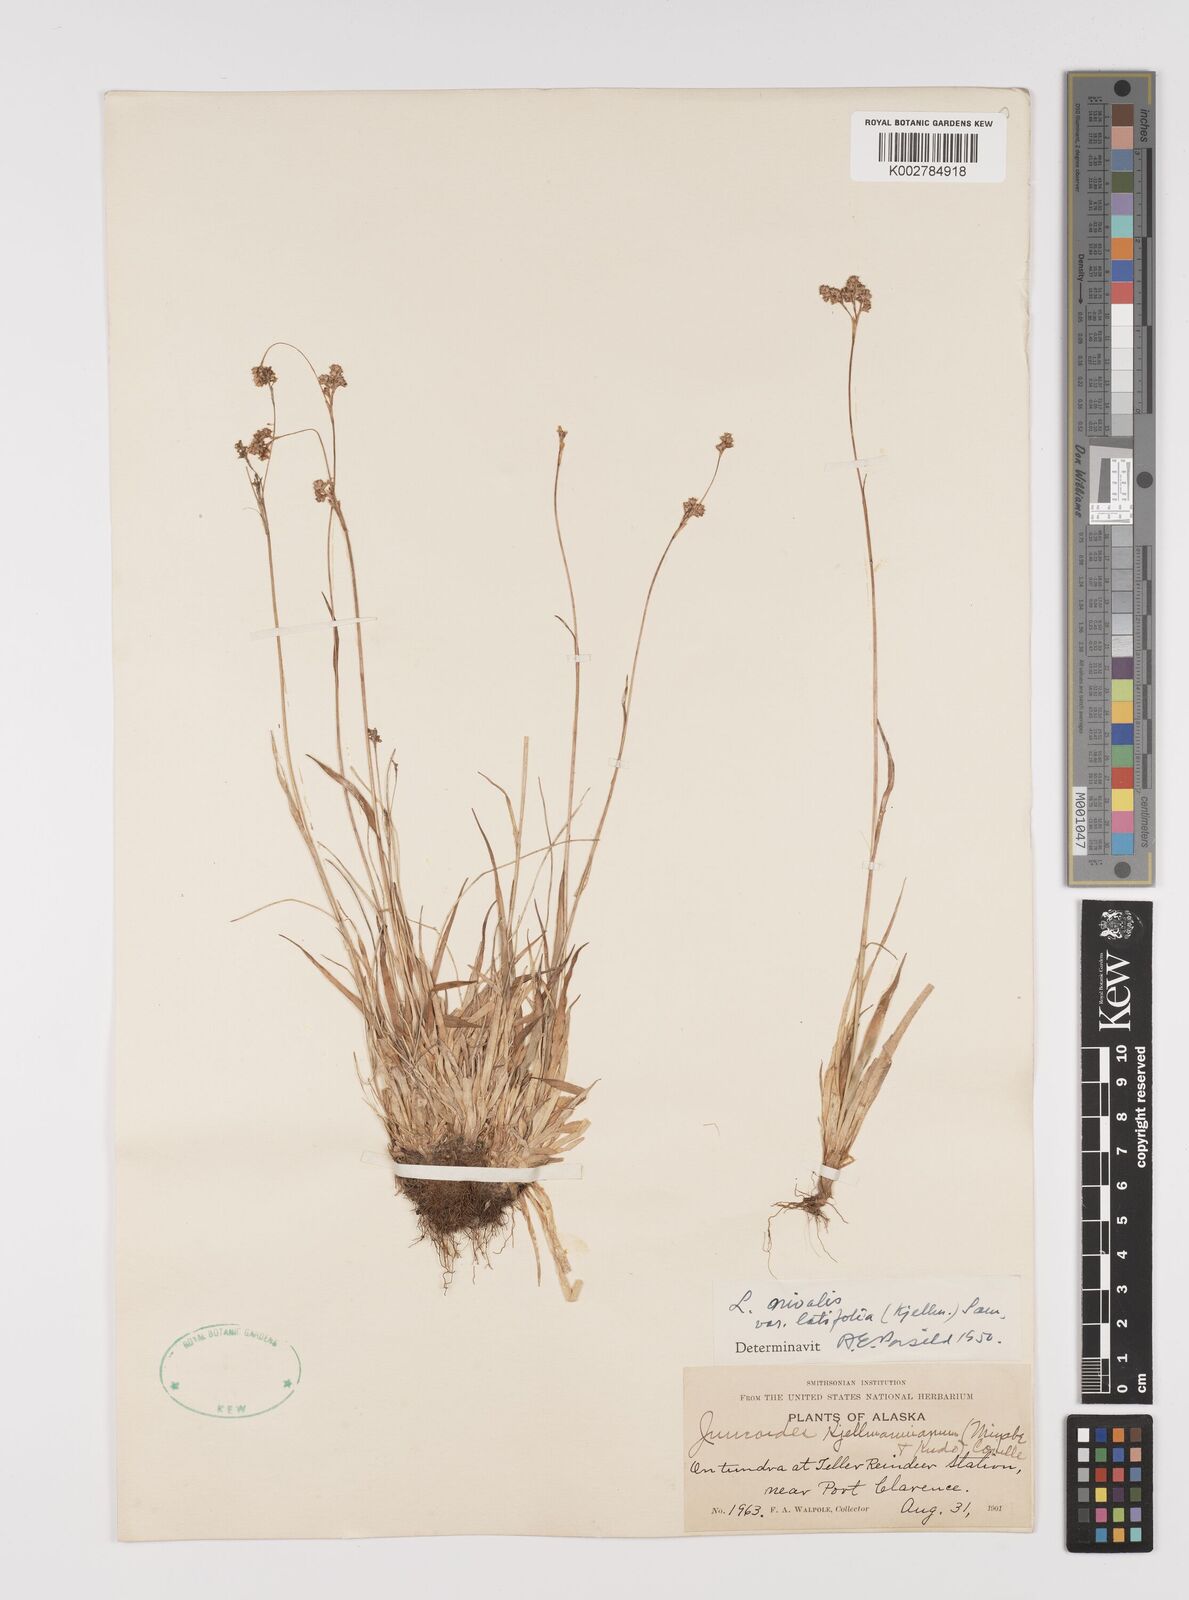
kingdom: Plantae
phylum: Tracheophyta
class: Liliopsida
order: Poales
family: Juncaceae
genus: Luzula
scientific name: Luzula nivalis
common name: Arctic woodrush
